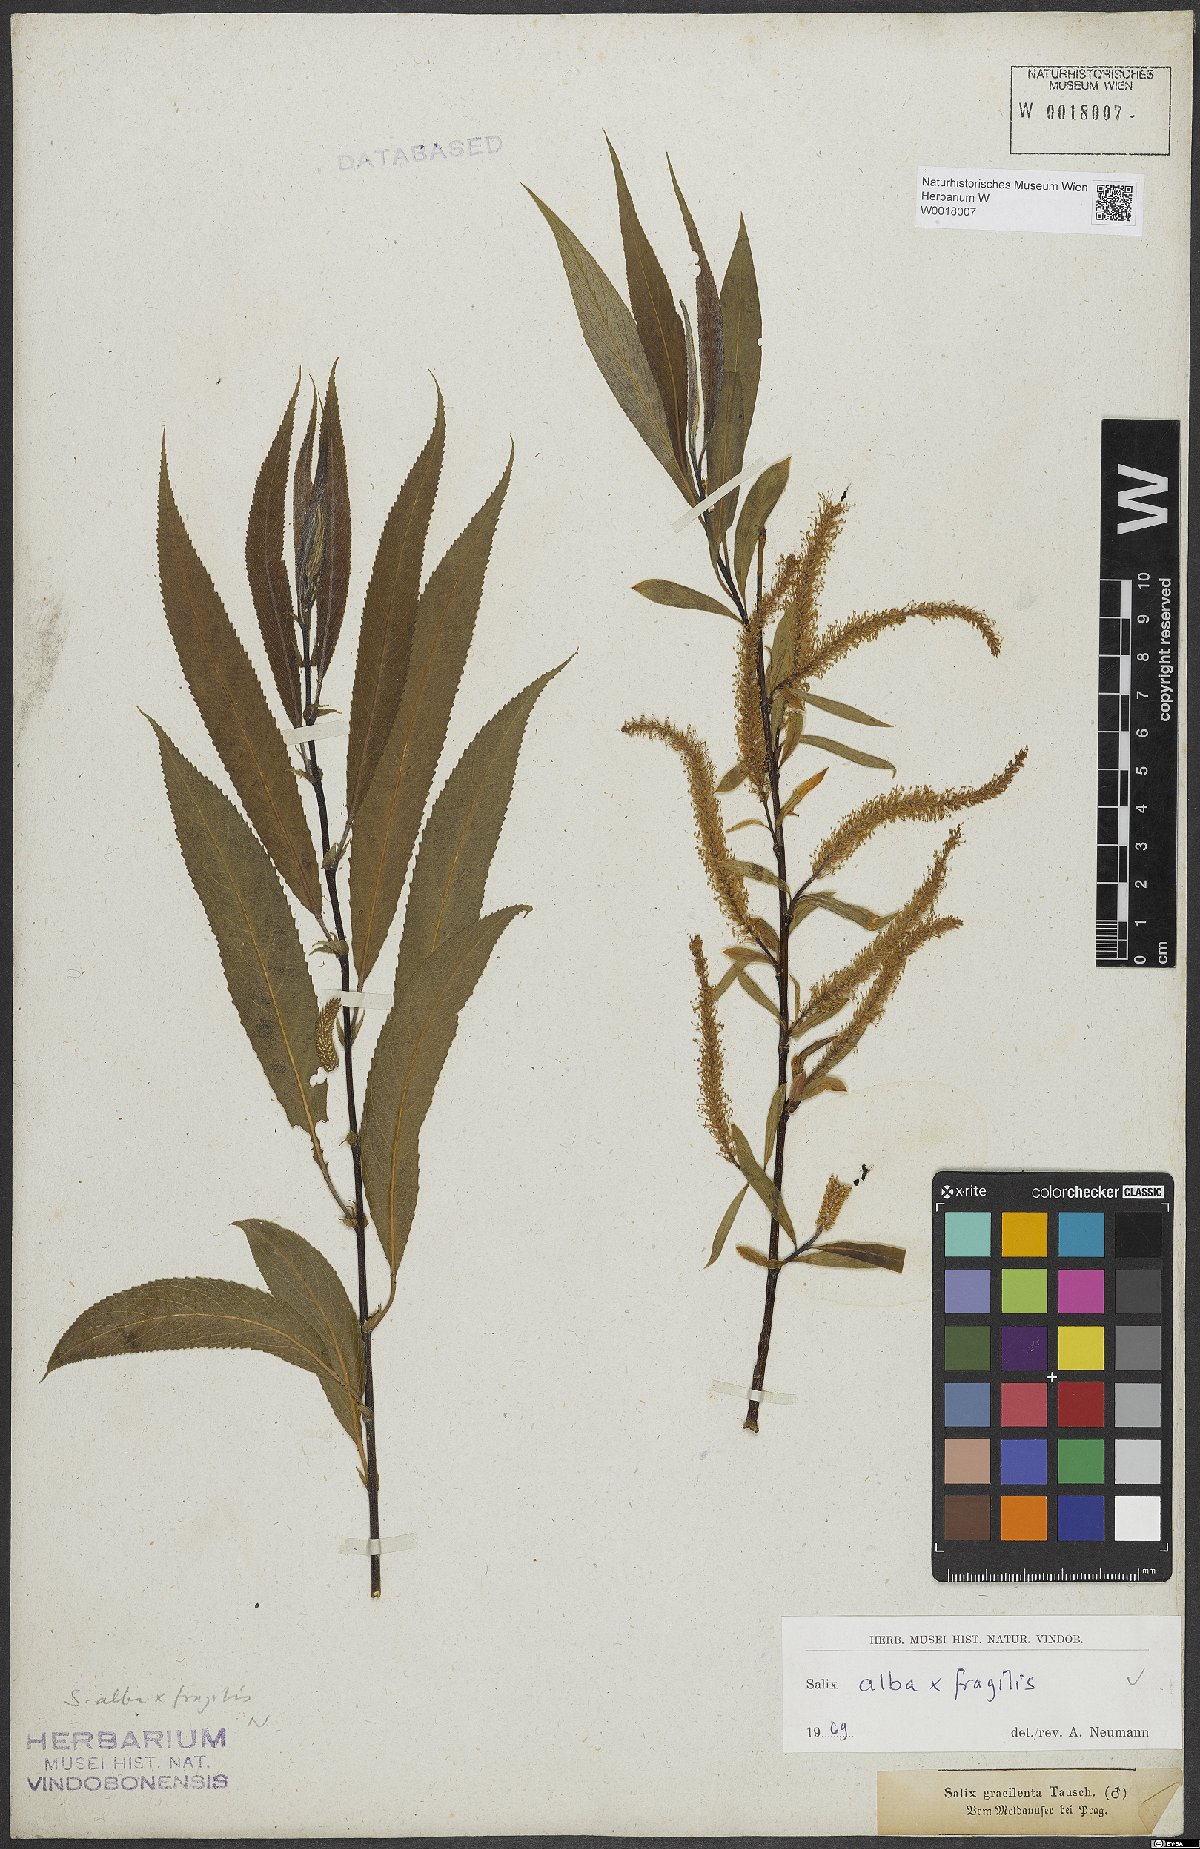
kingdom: Plantae
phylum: Tracheophyta
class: Magnoliopsida
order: Malpighiales
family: Salicaceae
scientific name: Salicaceae
